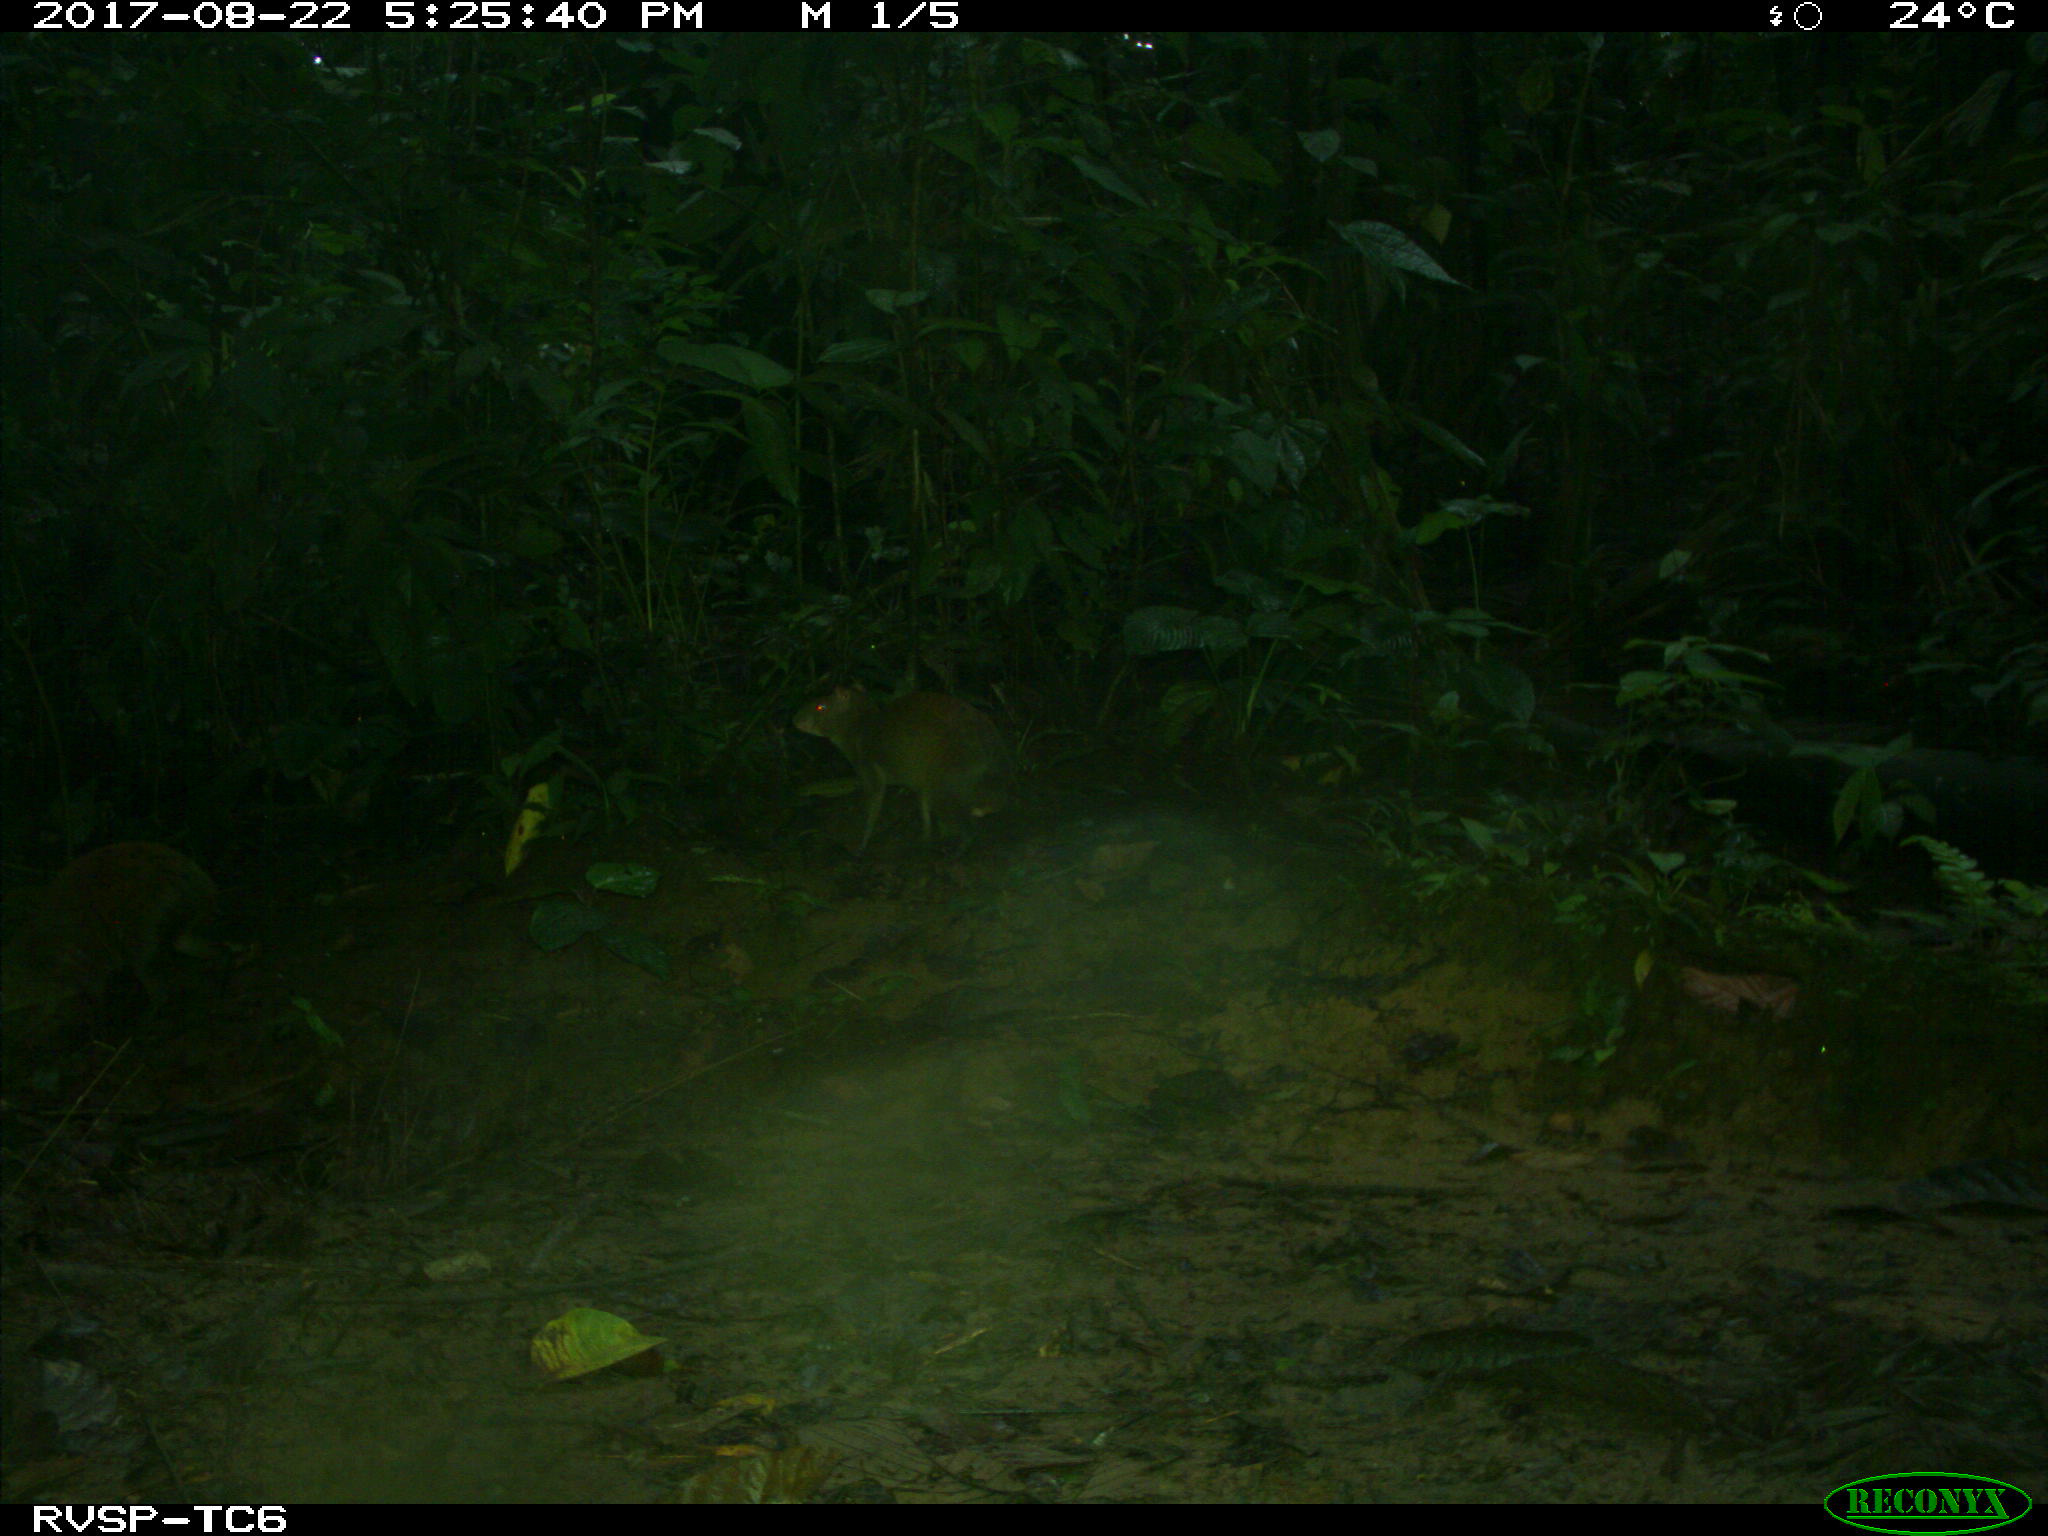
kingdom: Animalia
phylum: Chordata
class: Mammalia
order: Rodentia
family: Dasyproctidae
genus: Dasyprocta
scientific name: Dasyprocta punctata
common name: Central american agouti
